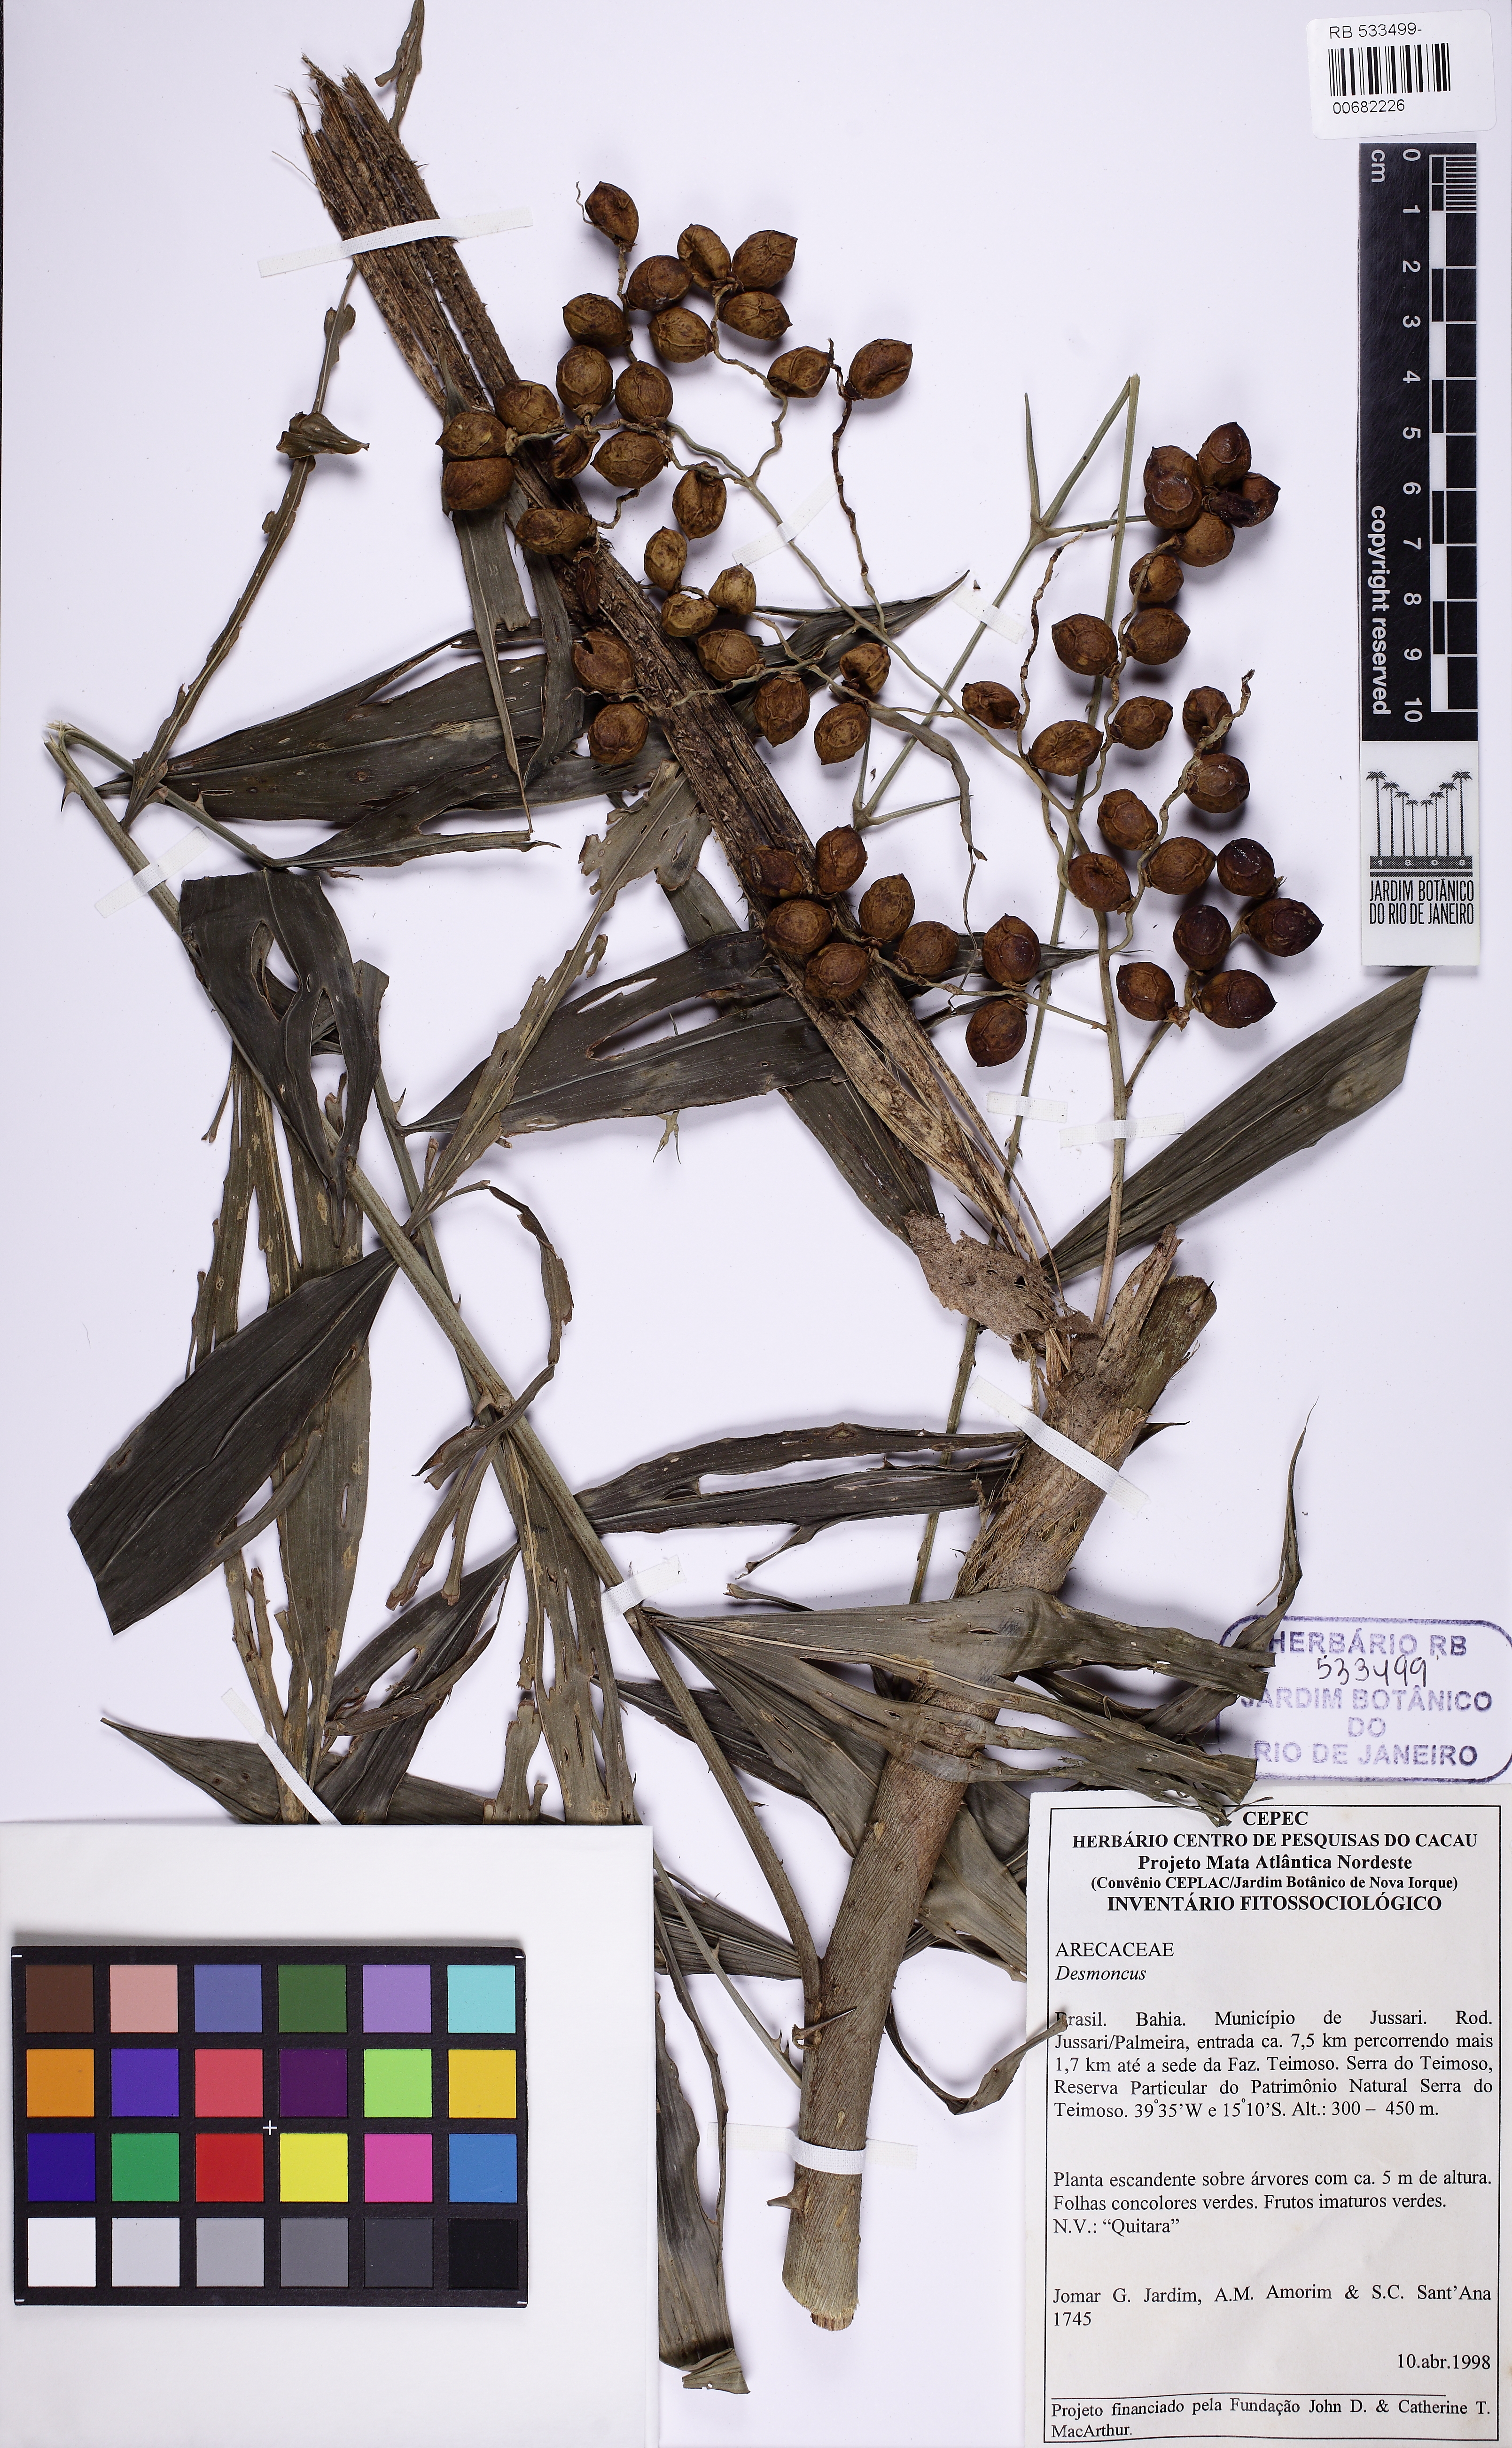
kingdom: Plantae
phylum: Tracheophyta
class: Liliopsida
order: Arecales
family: Arecaceae
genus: Desmoncus
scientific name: Desmoncus
